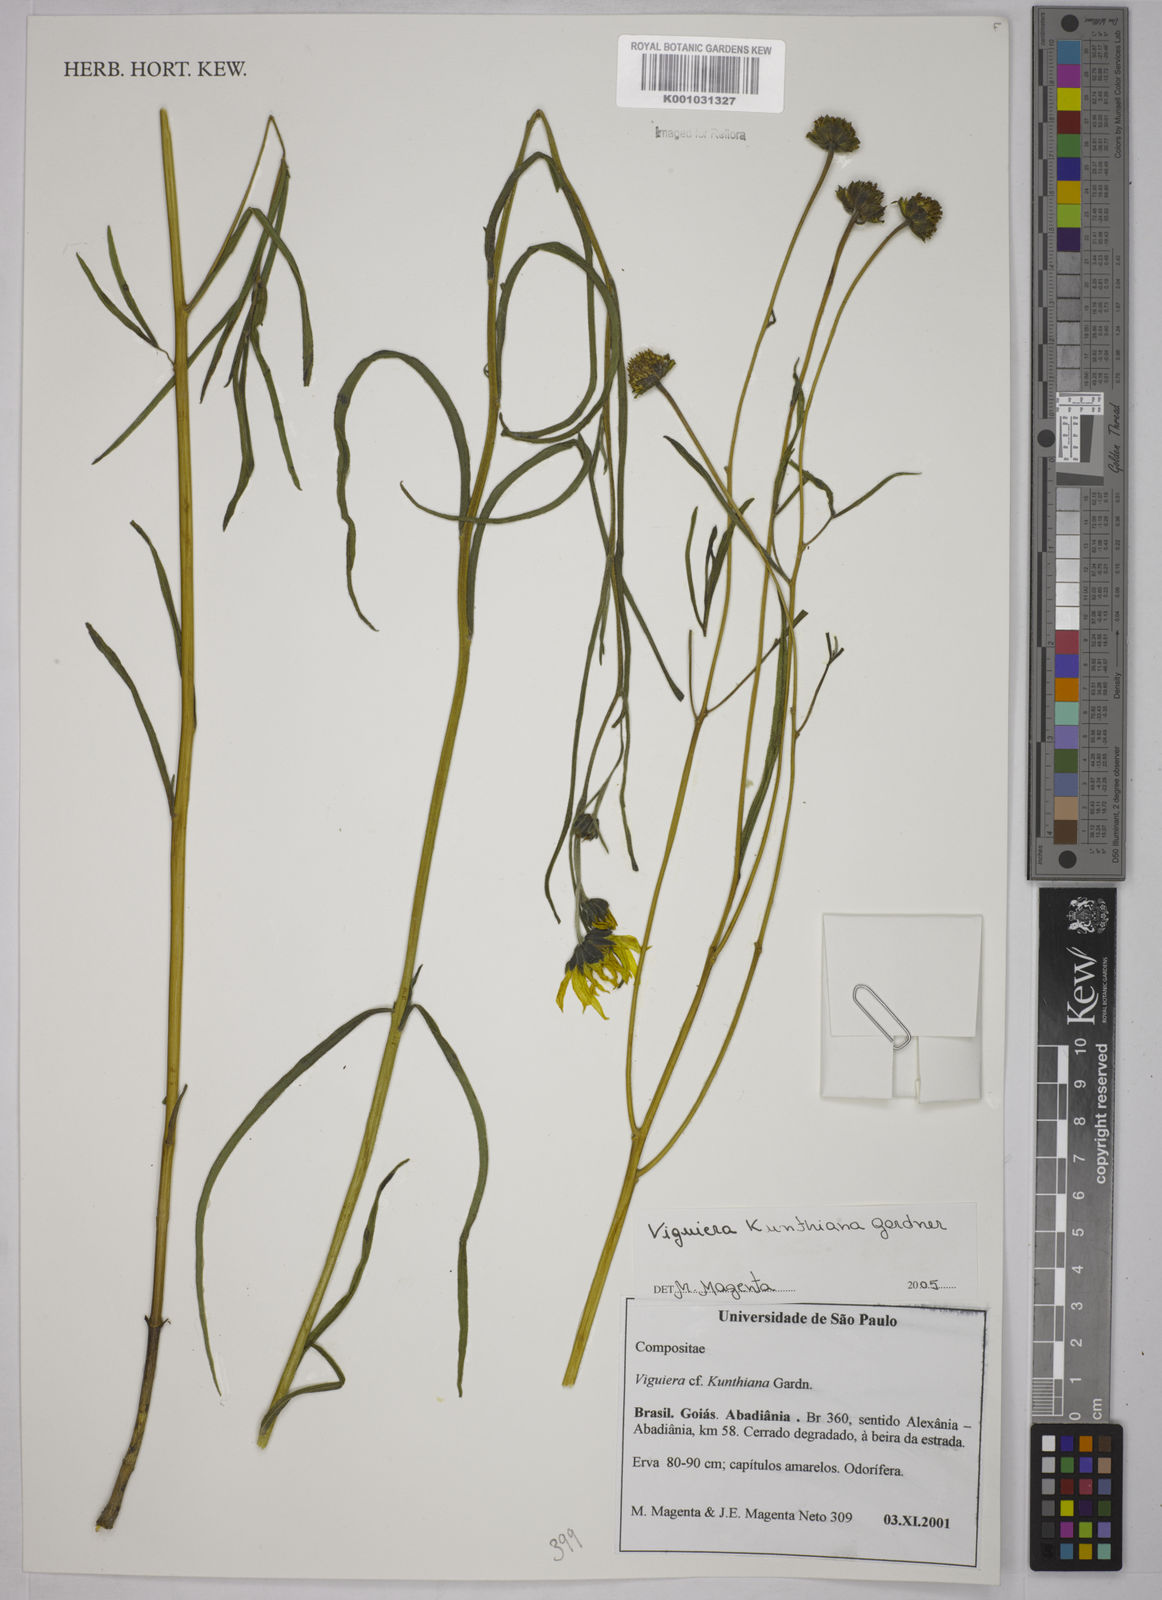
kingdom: Plantae
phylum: Tracheophyta
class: Magnoliopsida
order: Asterales
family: Asteraceae
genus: Aldama
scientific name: Aldama kunthiana
